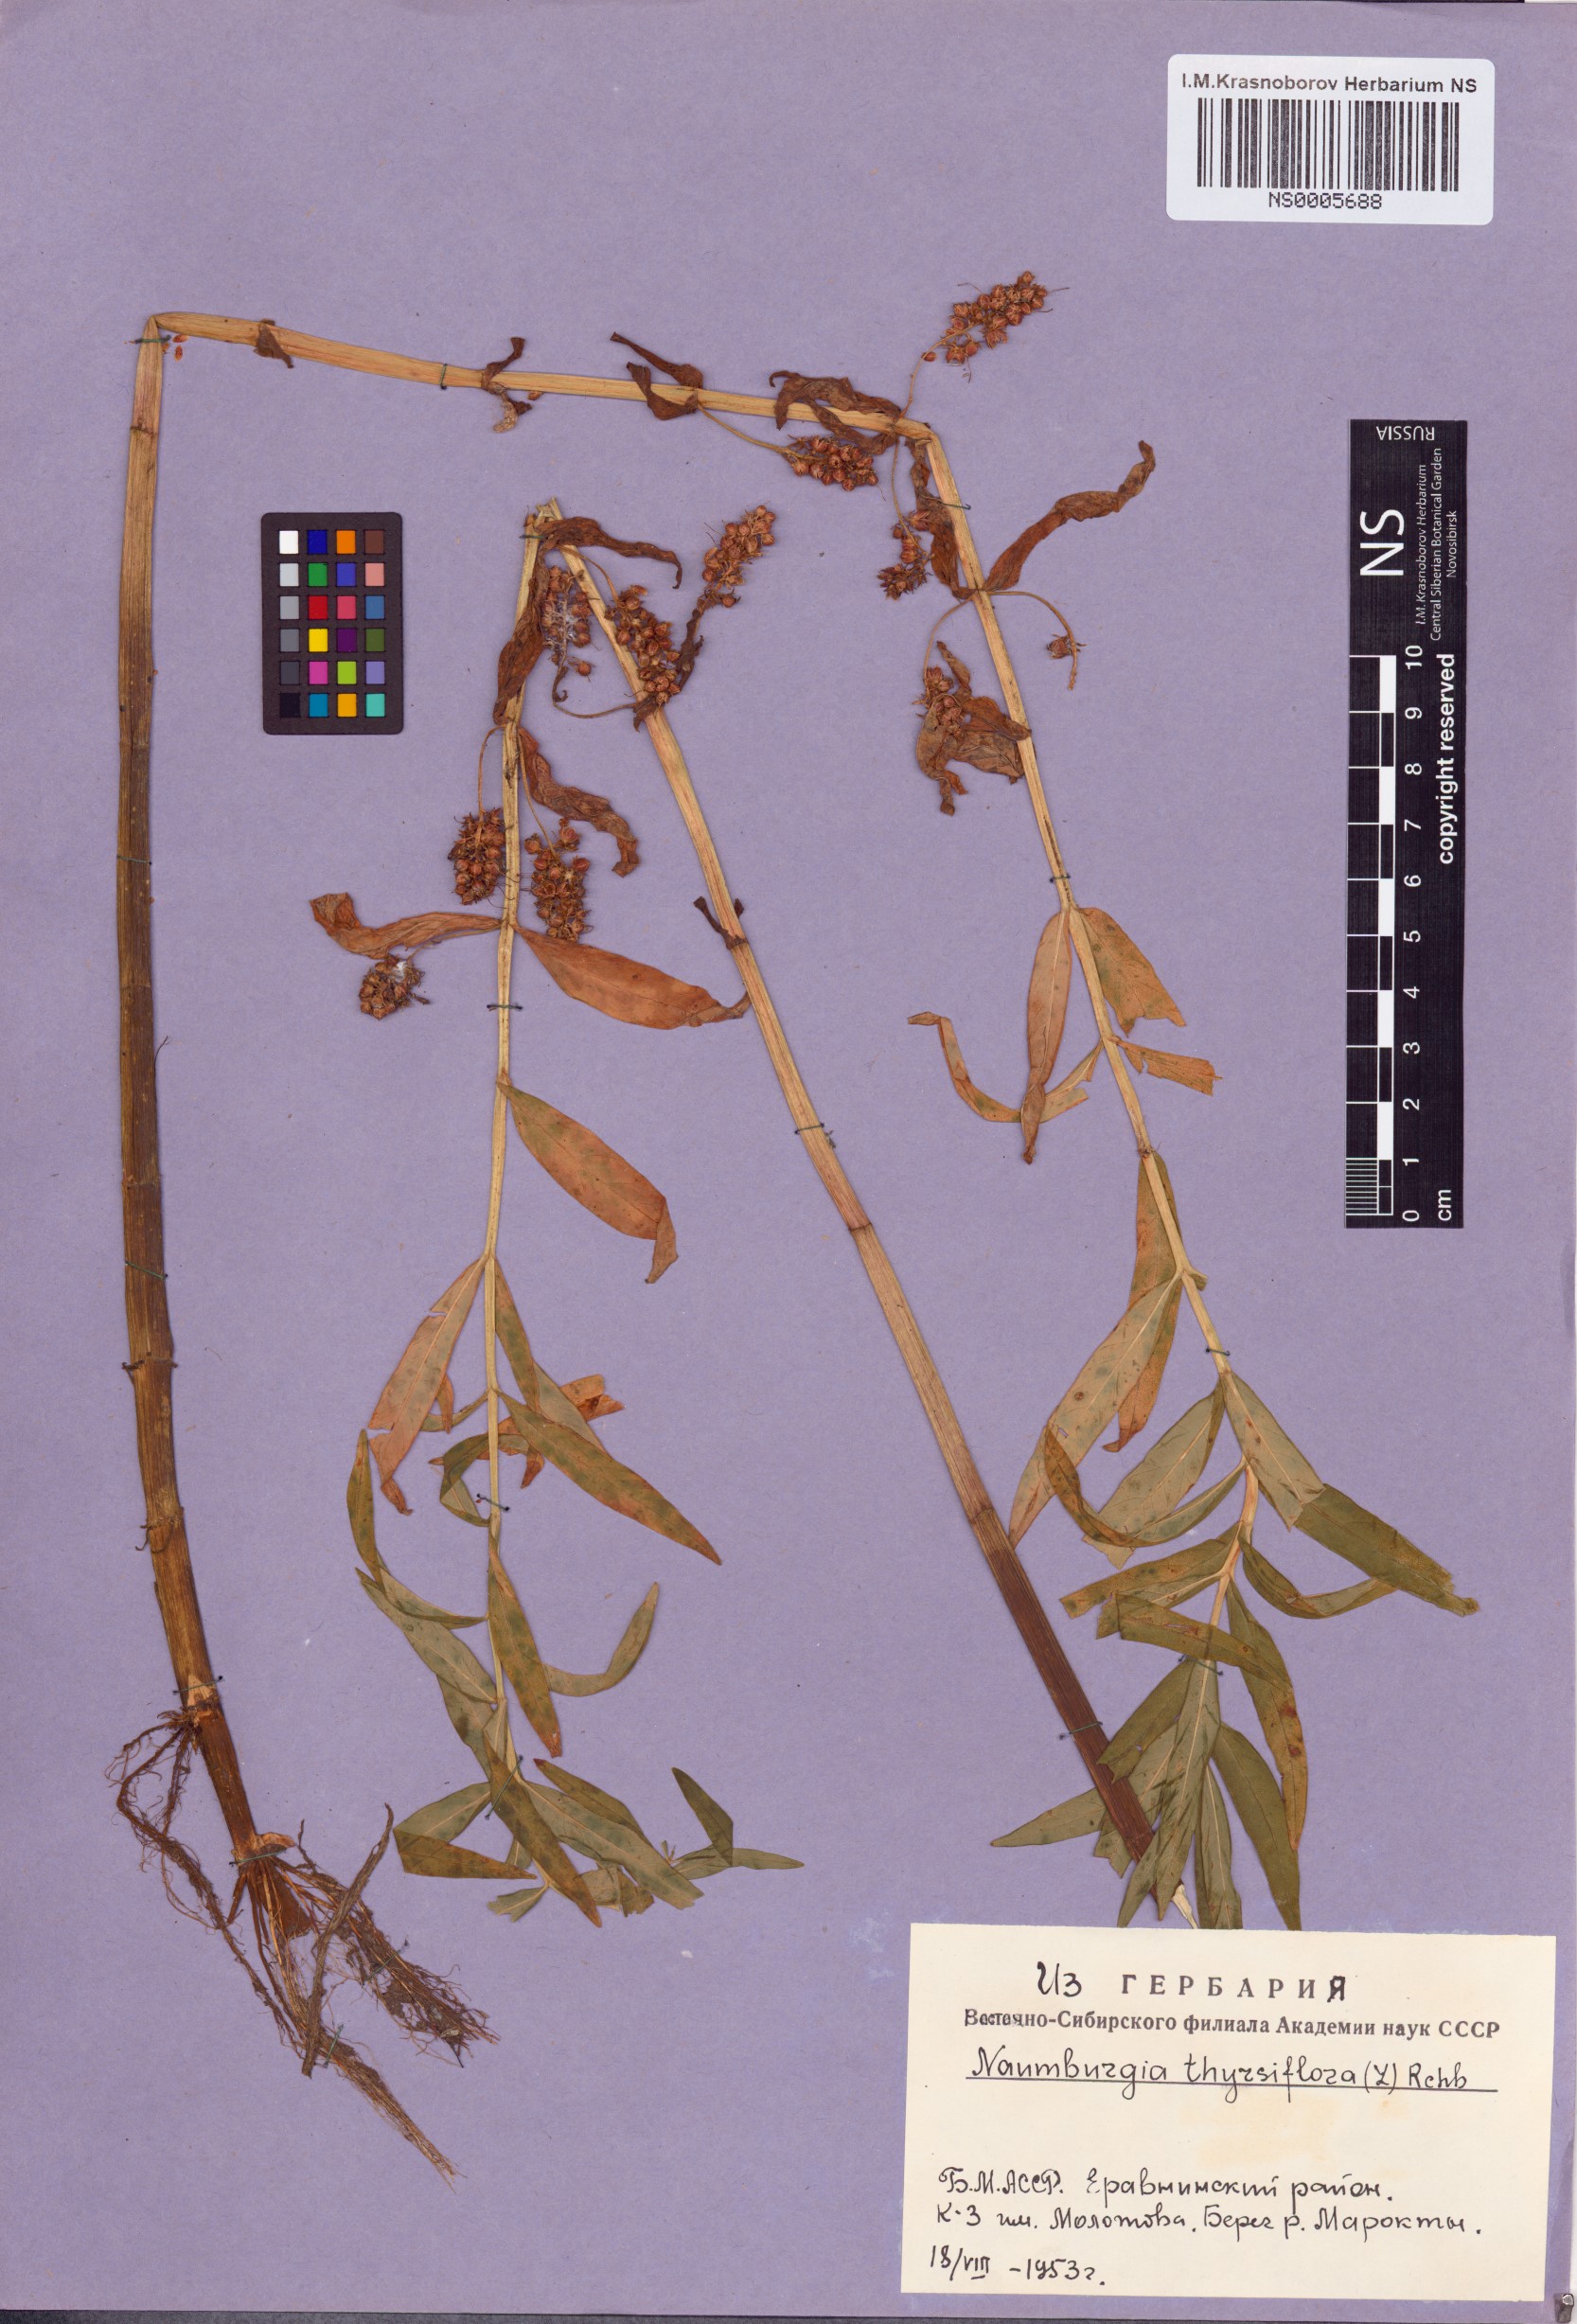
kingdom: Plantae
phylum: Tracheophyta
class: Magnoliopsida
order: Ericales
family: Primulaceae
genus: Lysimachia
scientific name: Lysimachia thyrsiflora
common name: Tufted loosestrife
